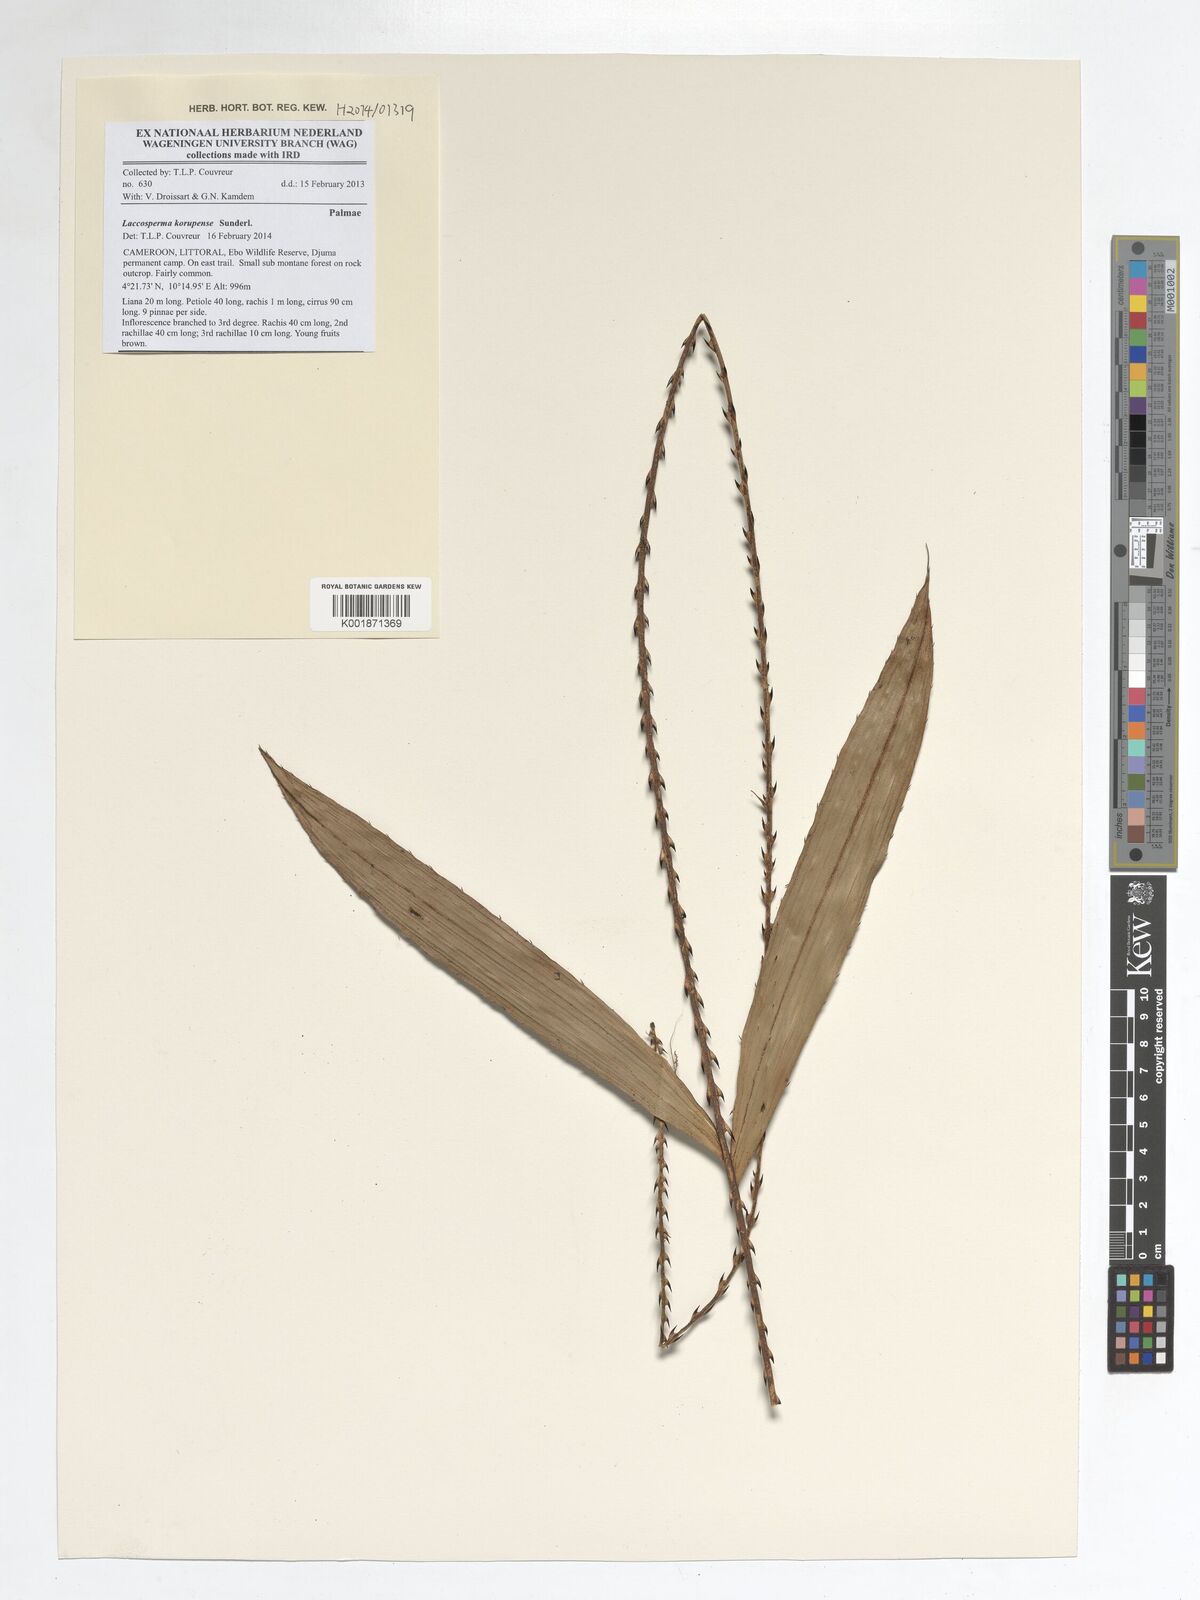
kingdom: Plantae
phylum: Tracheophyta
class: Liliopsida
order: Arecales
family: Arecaceae
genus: Laccosperma
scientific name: Laccosperma korupense
